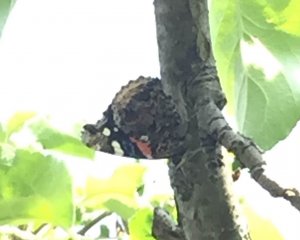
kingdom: Animalia
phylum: Arthropoda
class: Insecta
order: Lepidoptera
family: Nymphalidae
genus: Vanessa
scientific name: Vanessa atalanta
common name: Red Admiral
